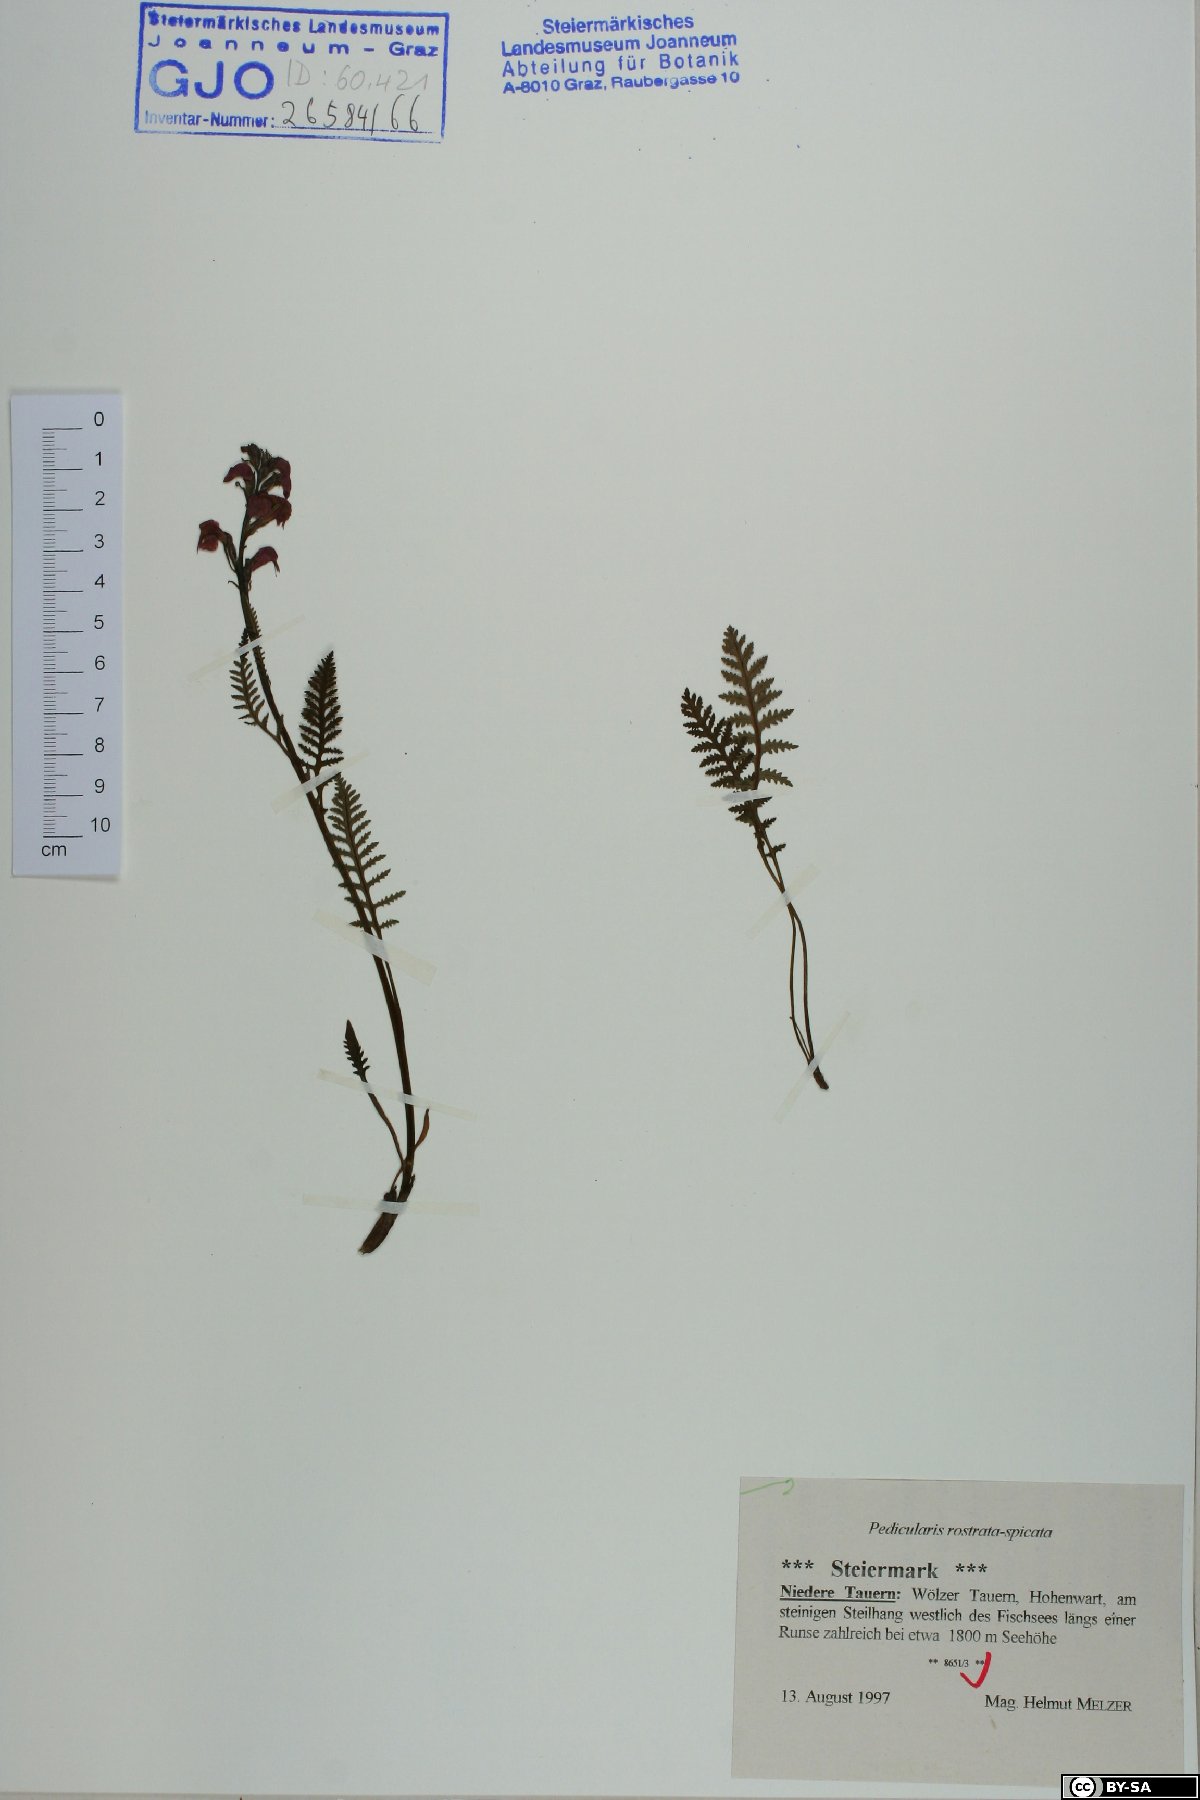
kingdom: Plantae
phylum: Tracheophyta
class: Magnoliopsida
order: Lamiales
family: Orobanchaceae
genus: Pedicularis
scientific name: Pedicularis rostratospicata
